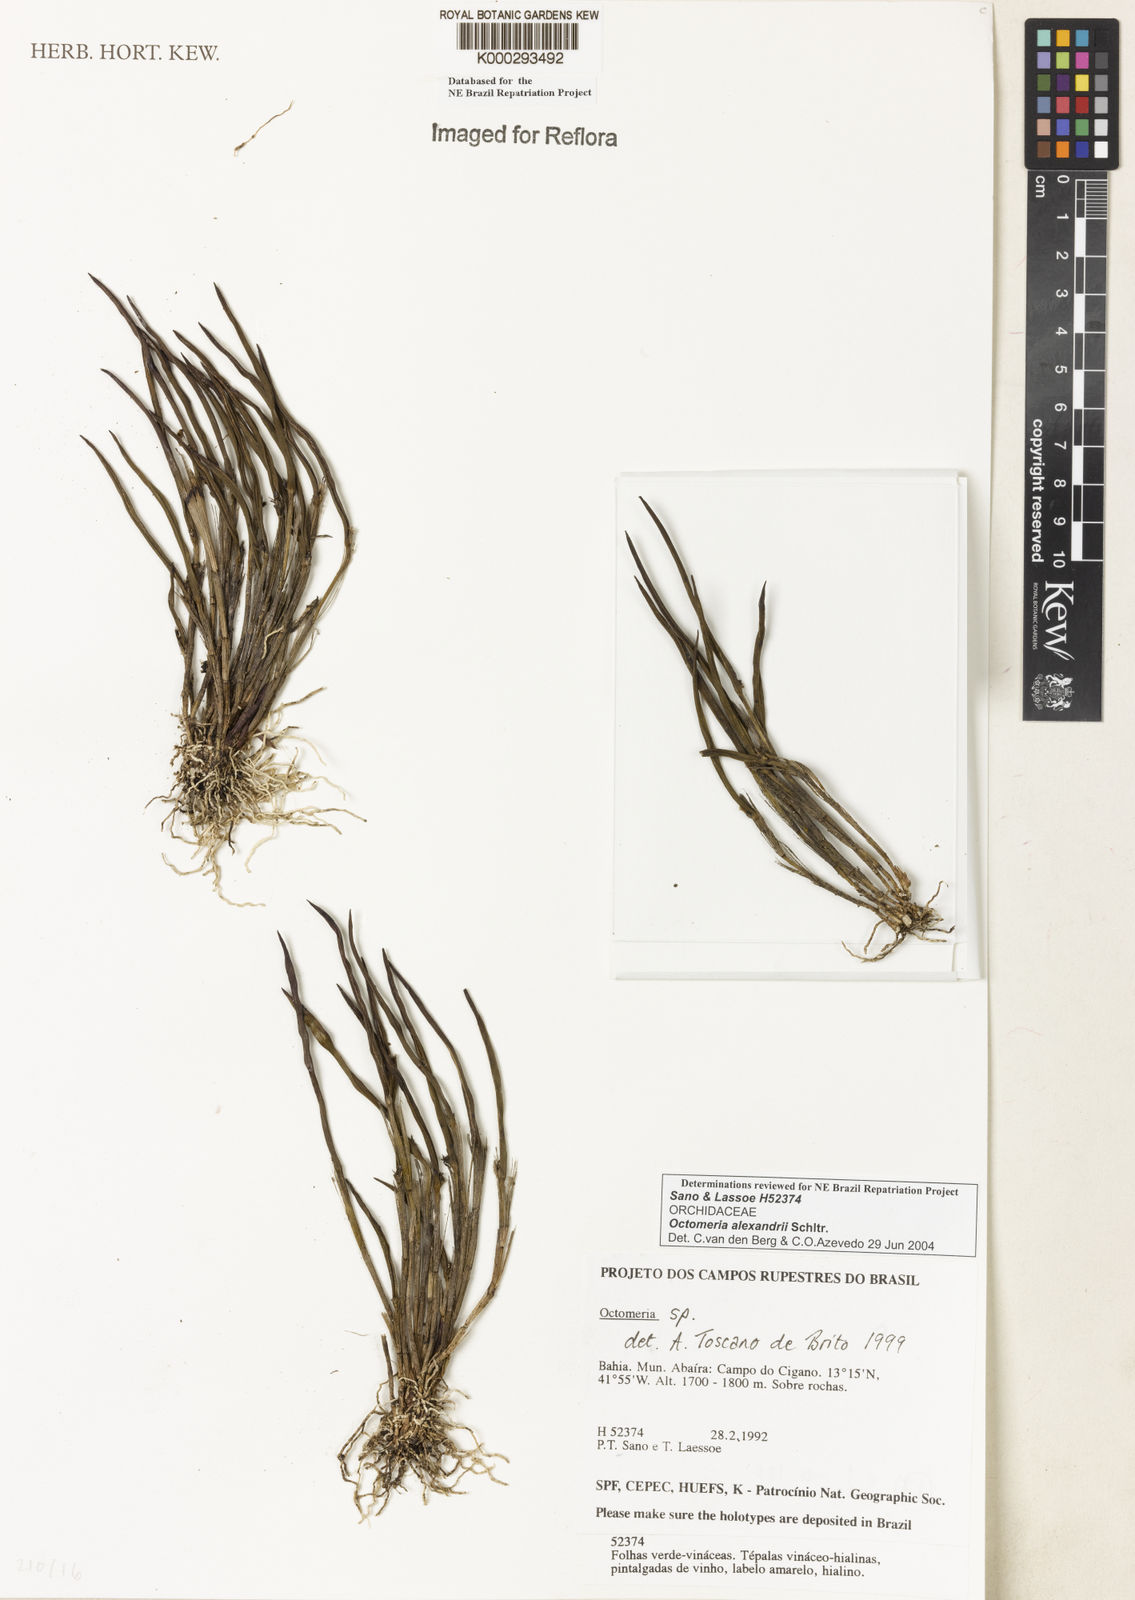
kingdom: Plantae
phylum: Tracheophyta
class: Liliopsida
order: Asparagales
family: Orchidaceae
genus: Octomeria
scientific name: Octomeria alexandri
